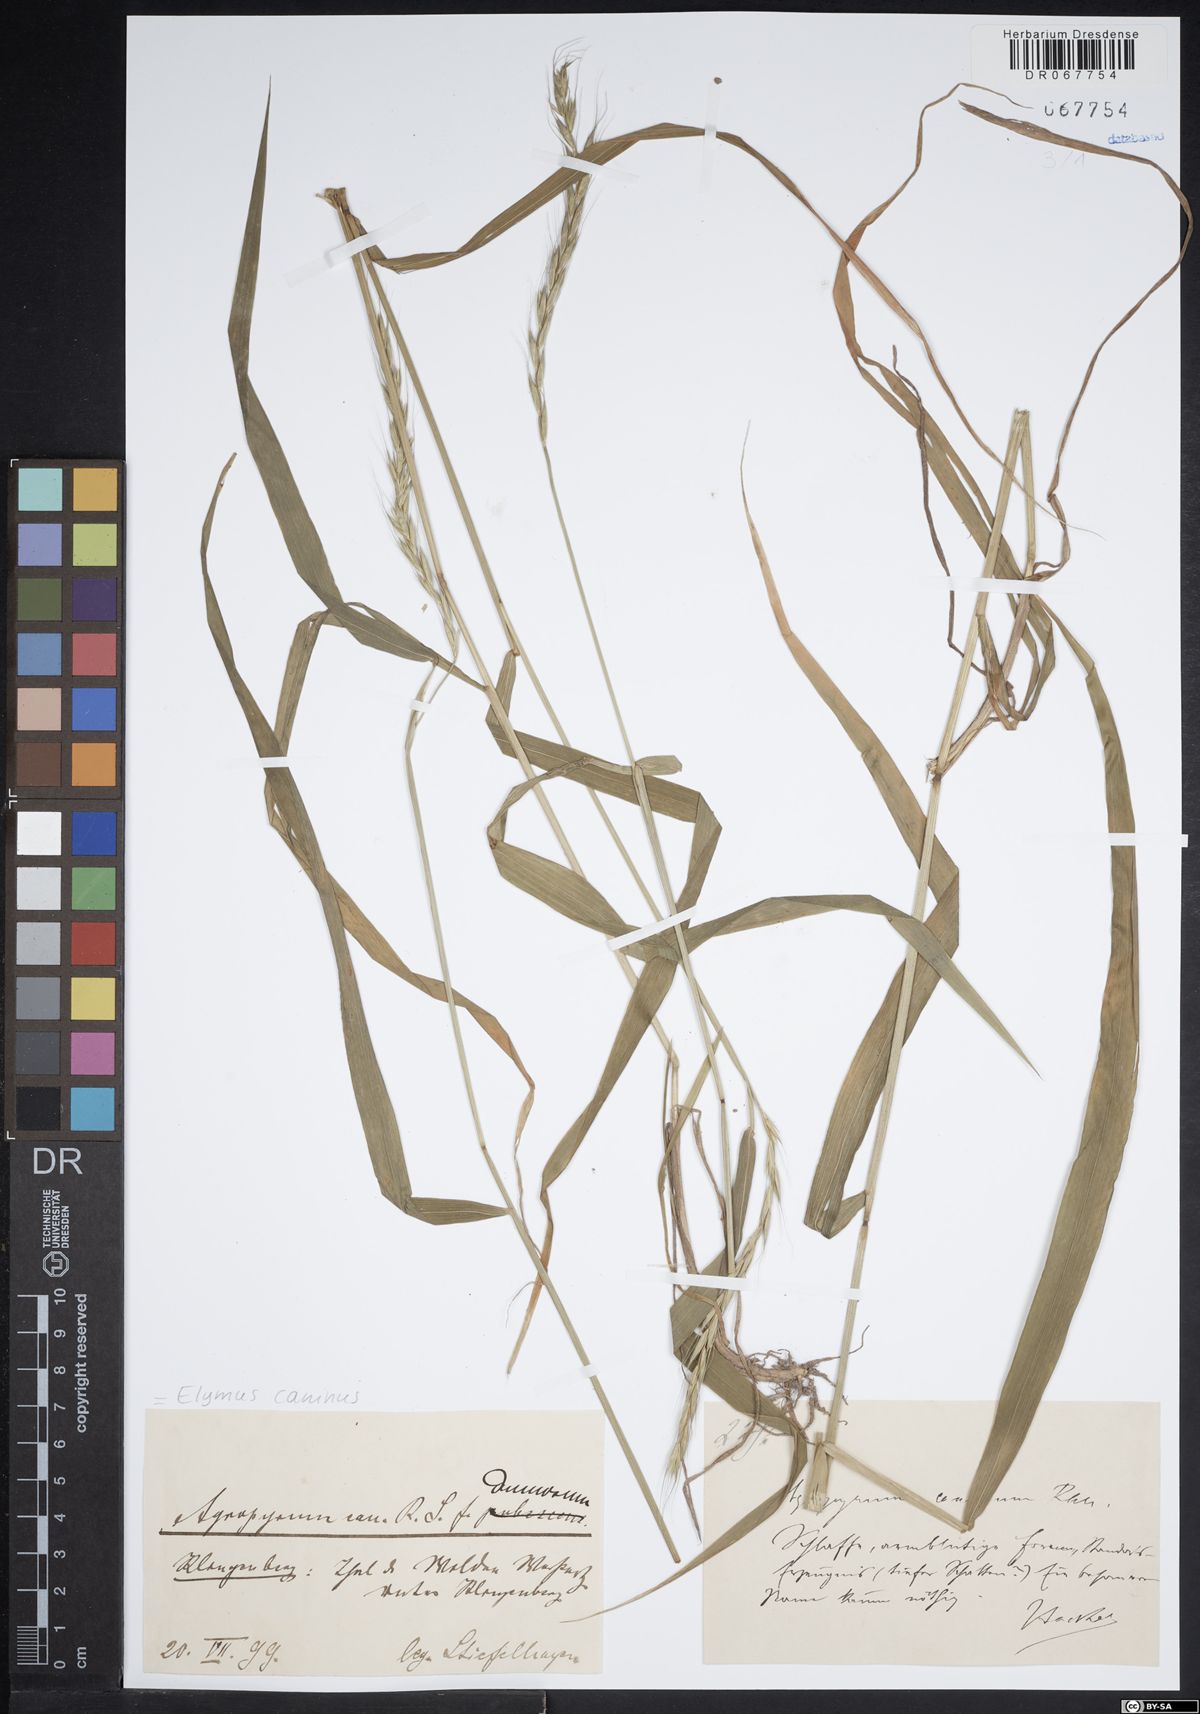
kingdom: Plantae
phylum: Tracheophyta
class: Liliopsida
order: Poales
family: Poaceae
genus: Elymus
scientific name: Elymus caninus
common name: Bearded couch
